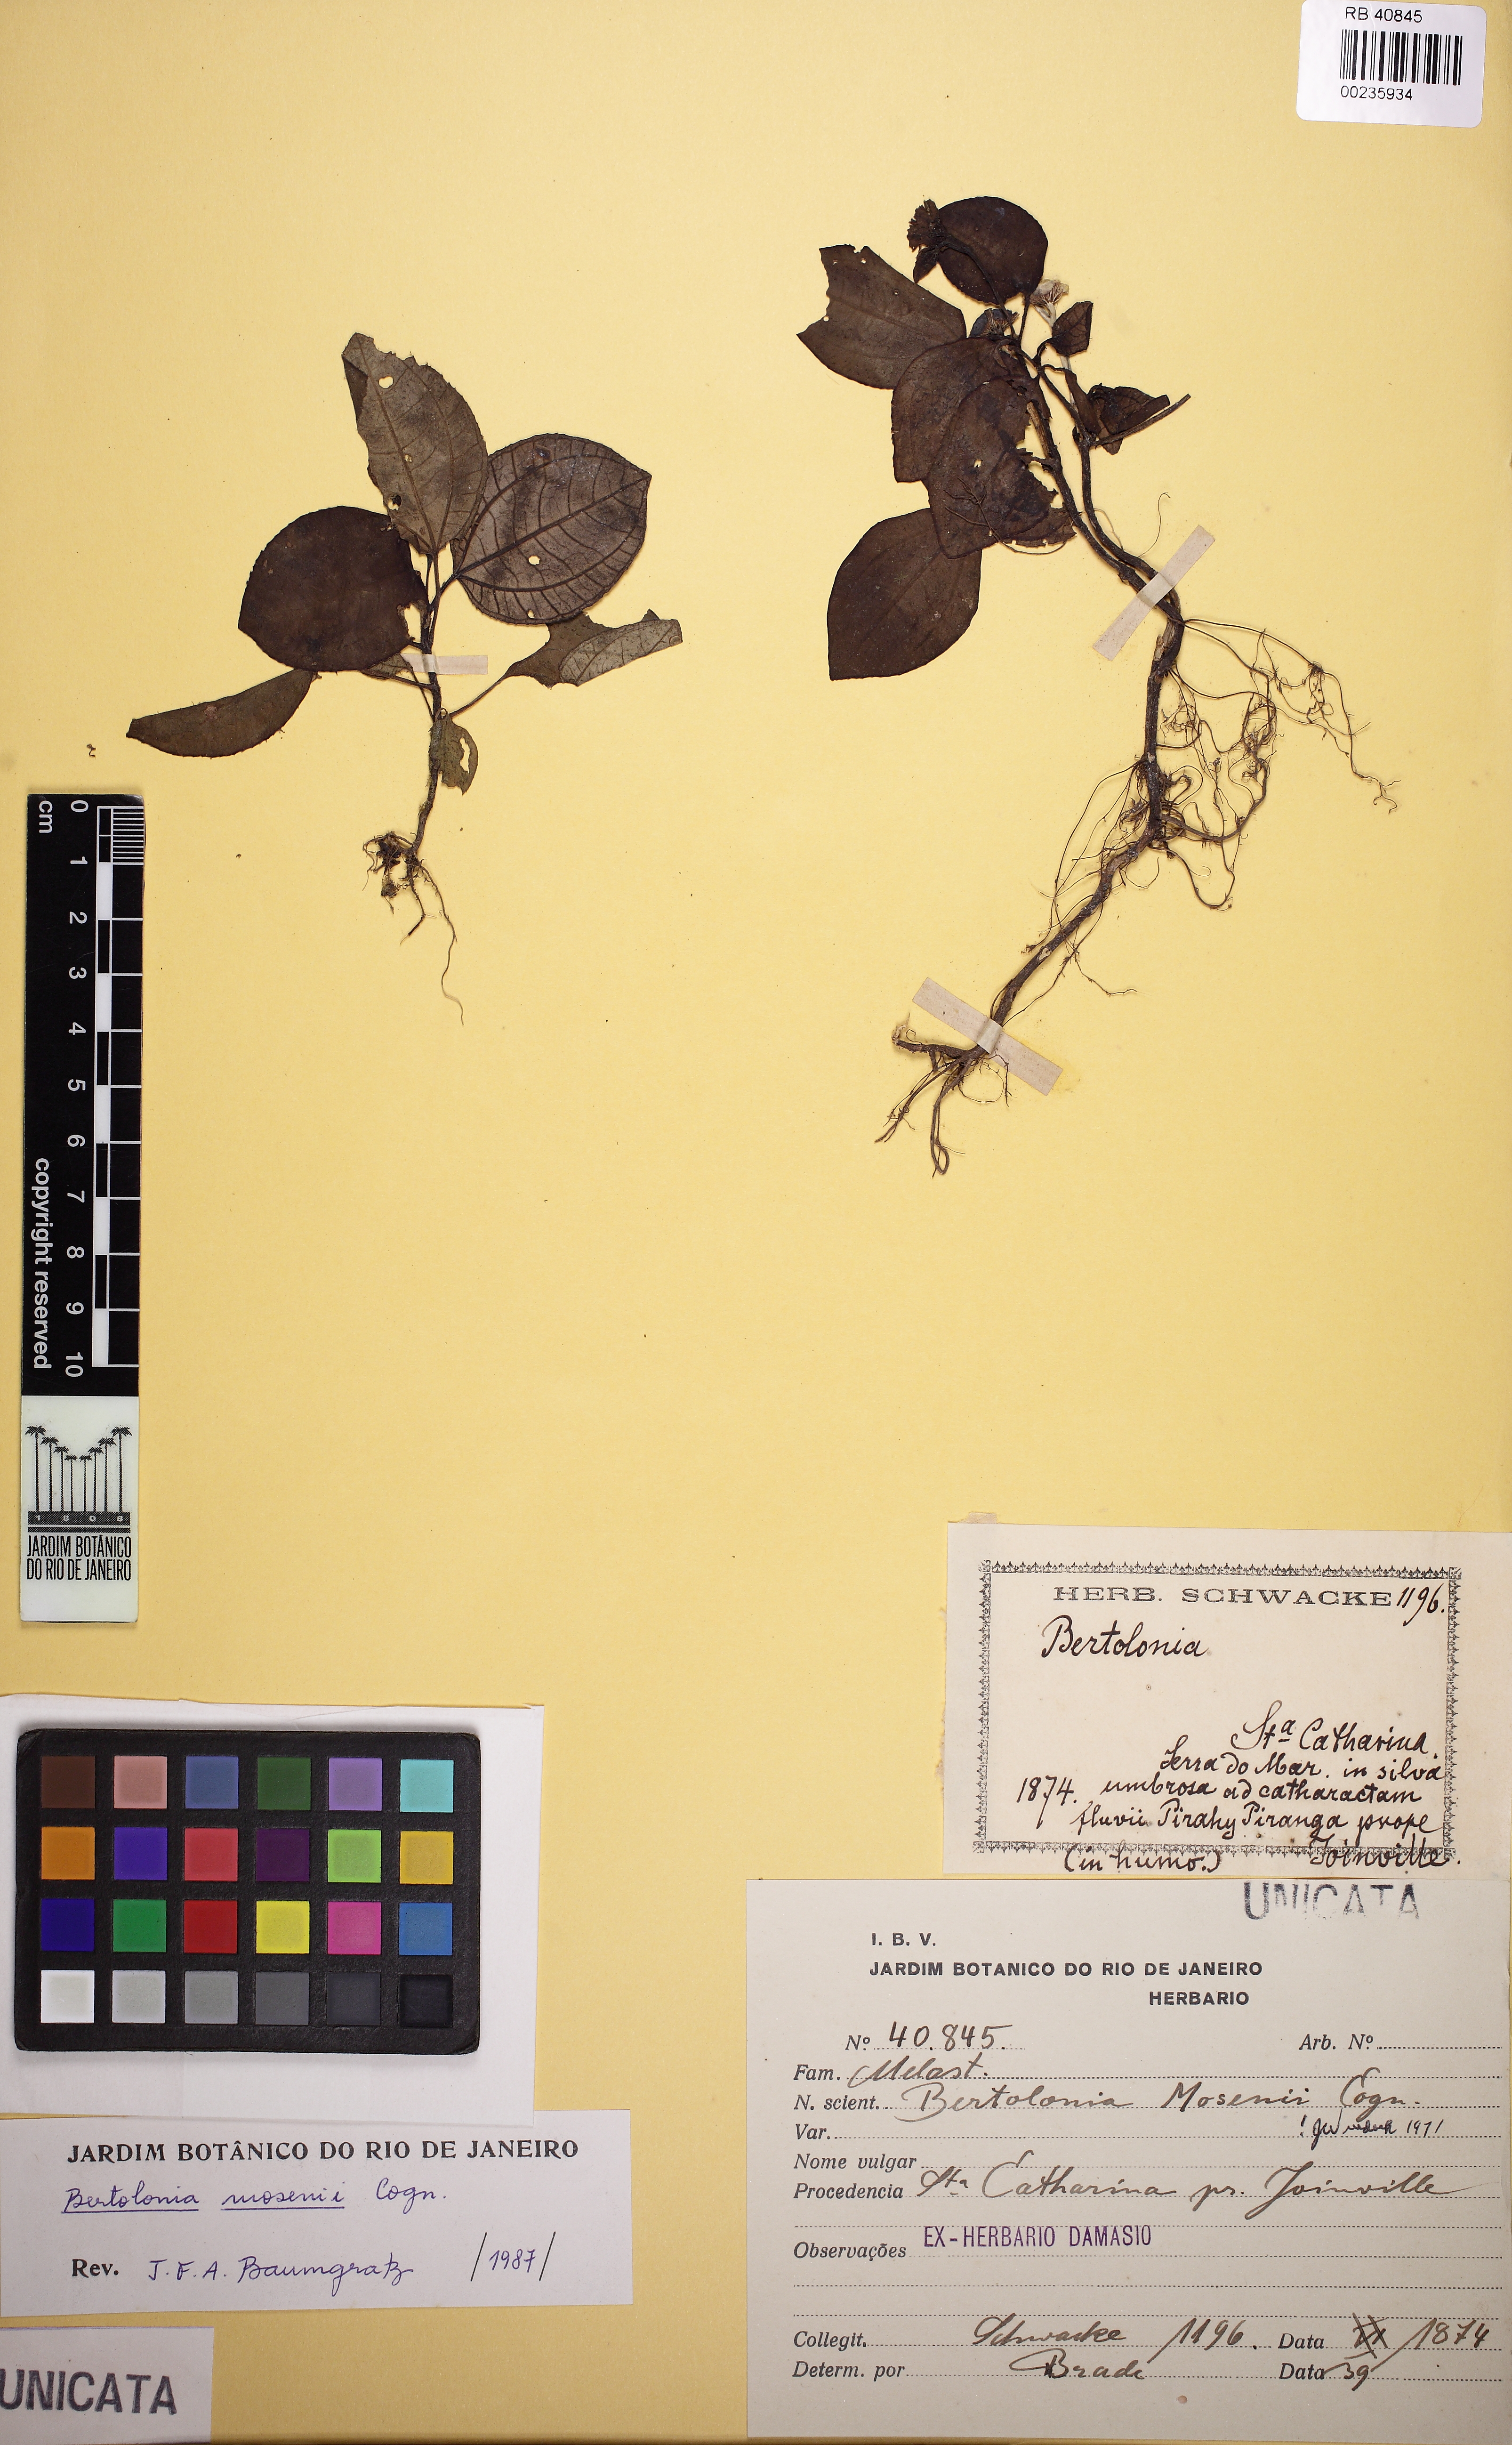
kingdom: Plantae
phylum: Tracheophyta
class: Magnoliopsida
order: Myrtales
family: Melastomataceae
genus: Bertolonia
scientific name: Bertolonia mosenii
